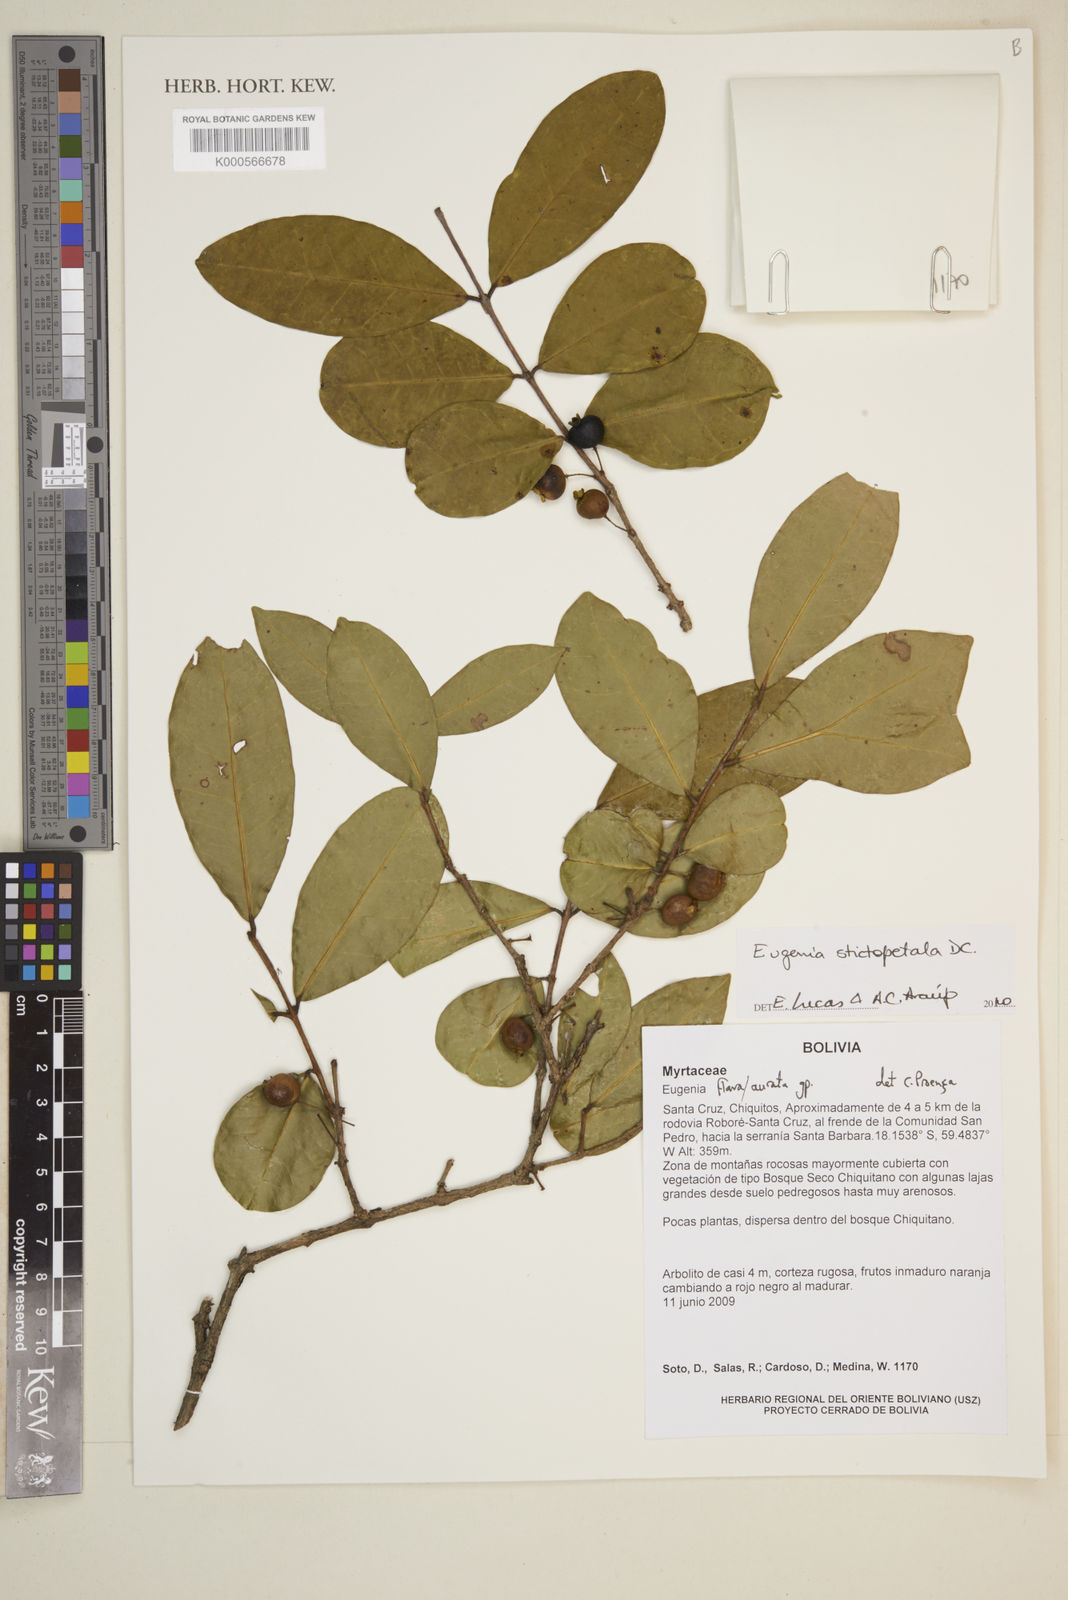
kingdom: Plantae
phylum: Tracheophyta
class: Magnoliopsida
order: Myrtales
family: Myrtaceae
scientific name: Myrtaceae
